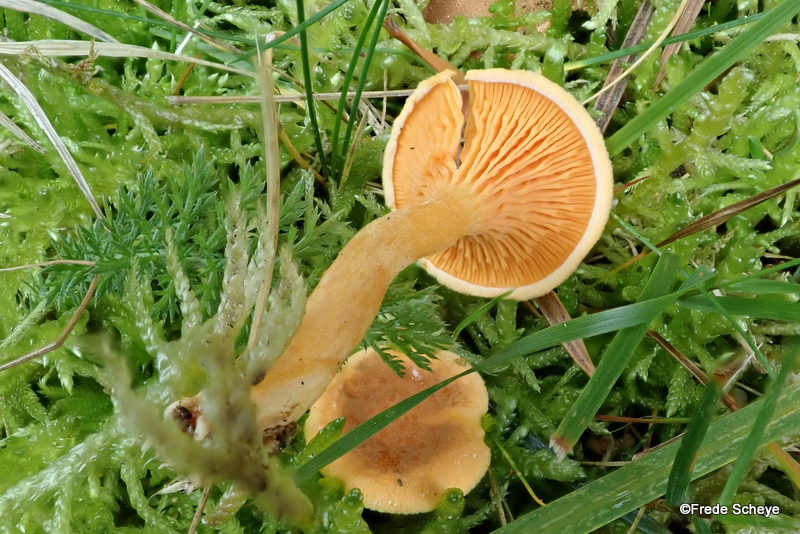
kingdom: Fungi
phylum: Basidiomycota
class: Agaricomycetes
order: Boletales
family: Hygrophoropsidaceae
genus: Hygrophoropsis
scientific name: Hygrophoropsis aurantiaca
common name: almindelig orangekantarel
